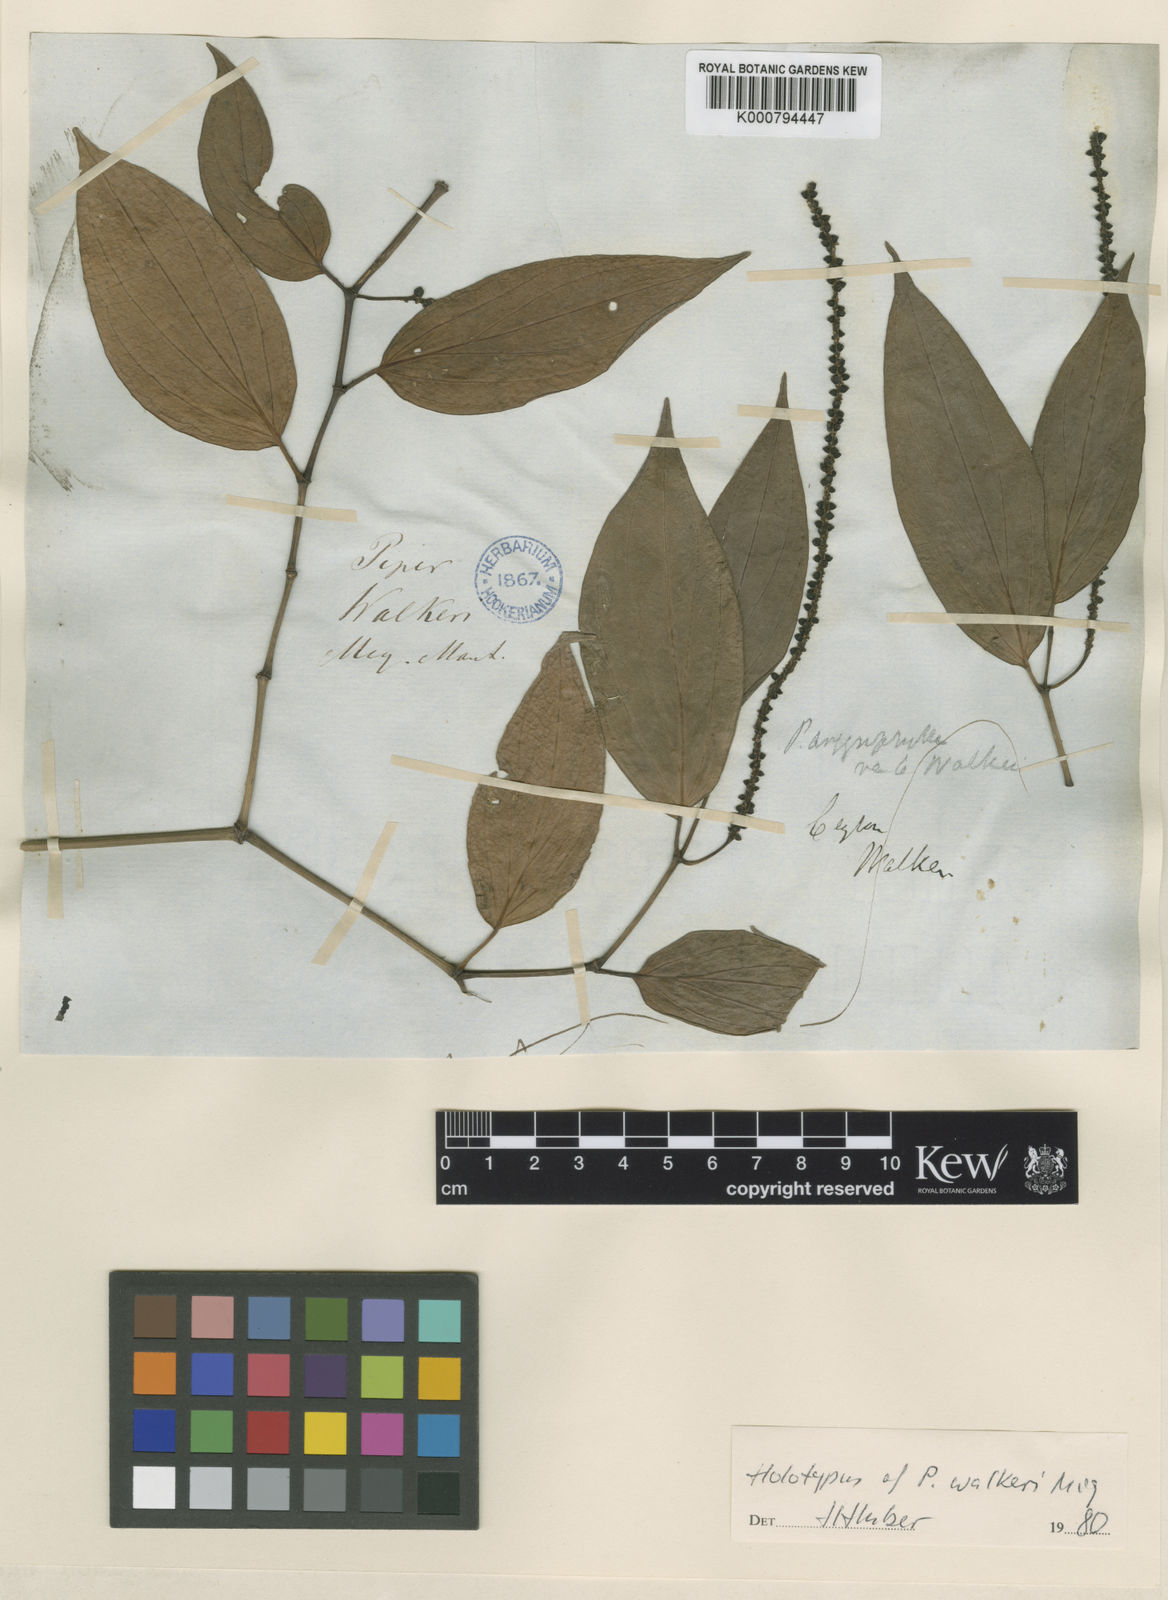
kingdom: Plantae
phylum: Tracheophyta
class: Magnoliopsida
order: Piperales
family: Piperaceae
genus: Piper
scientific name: Piper argyrophyllum
